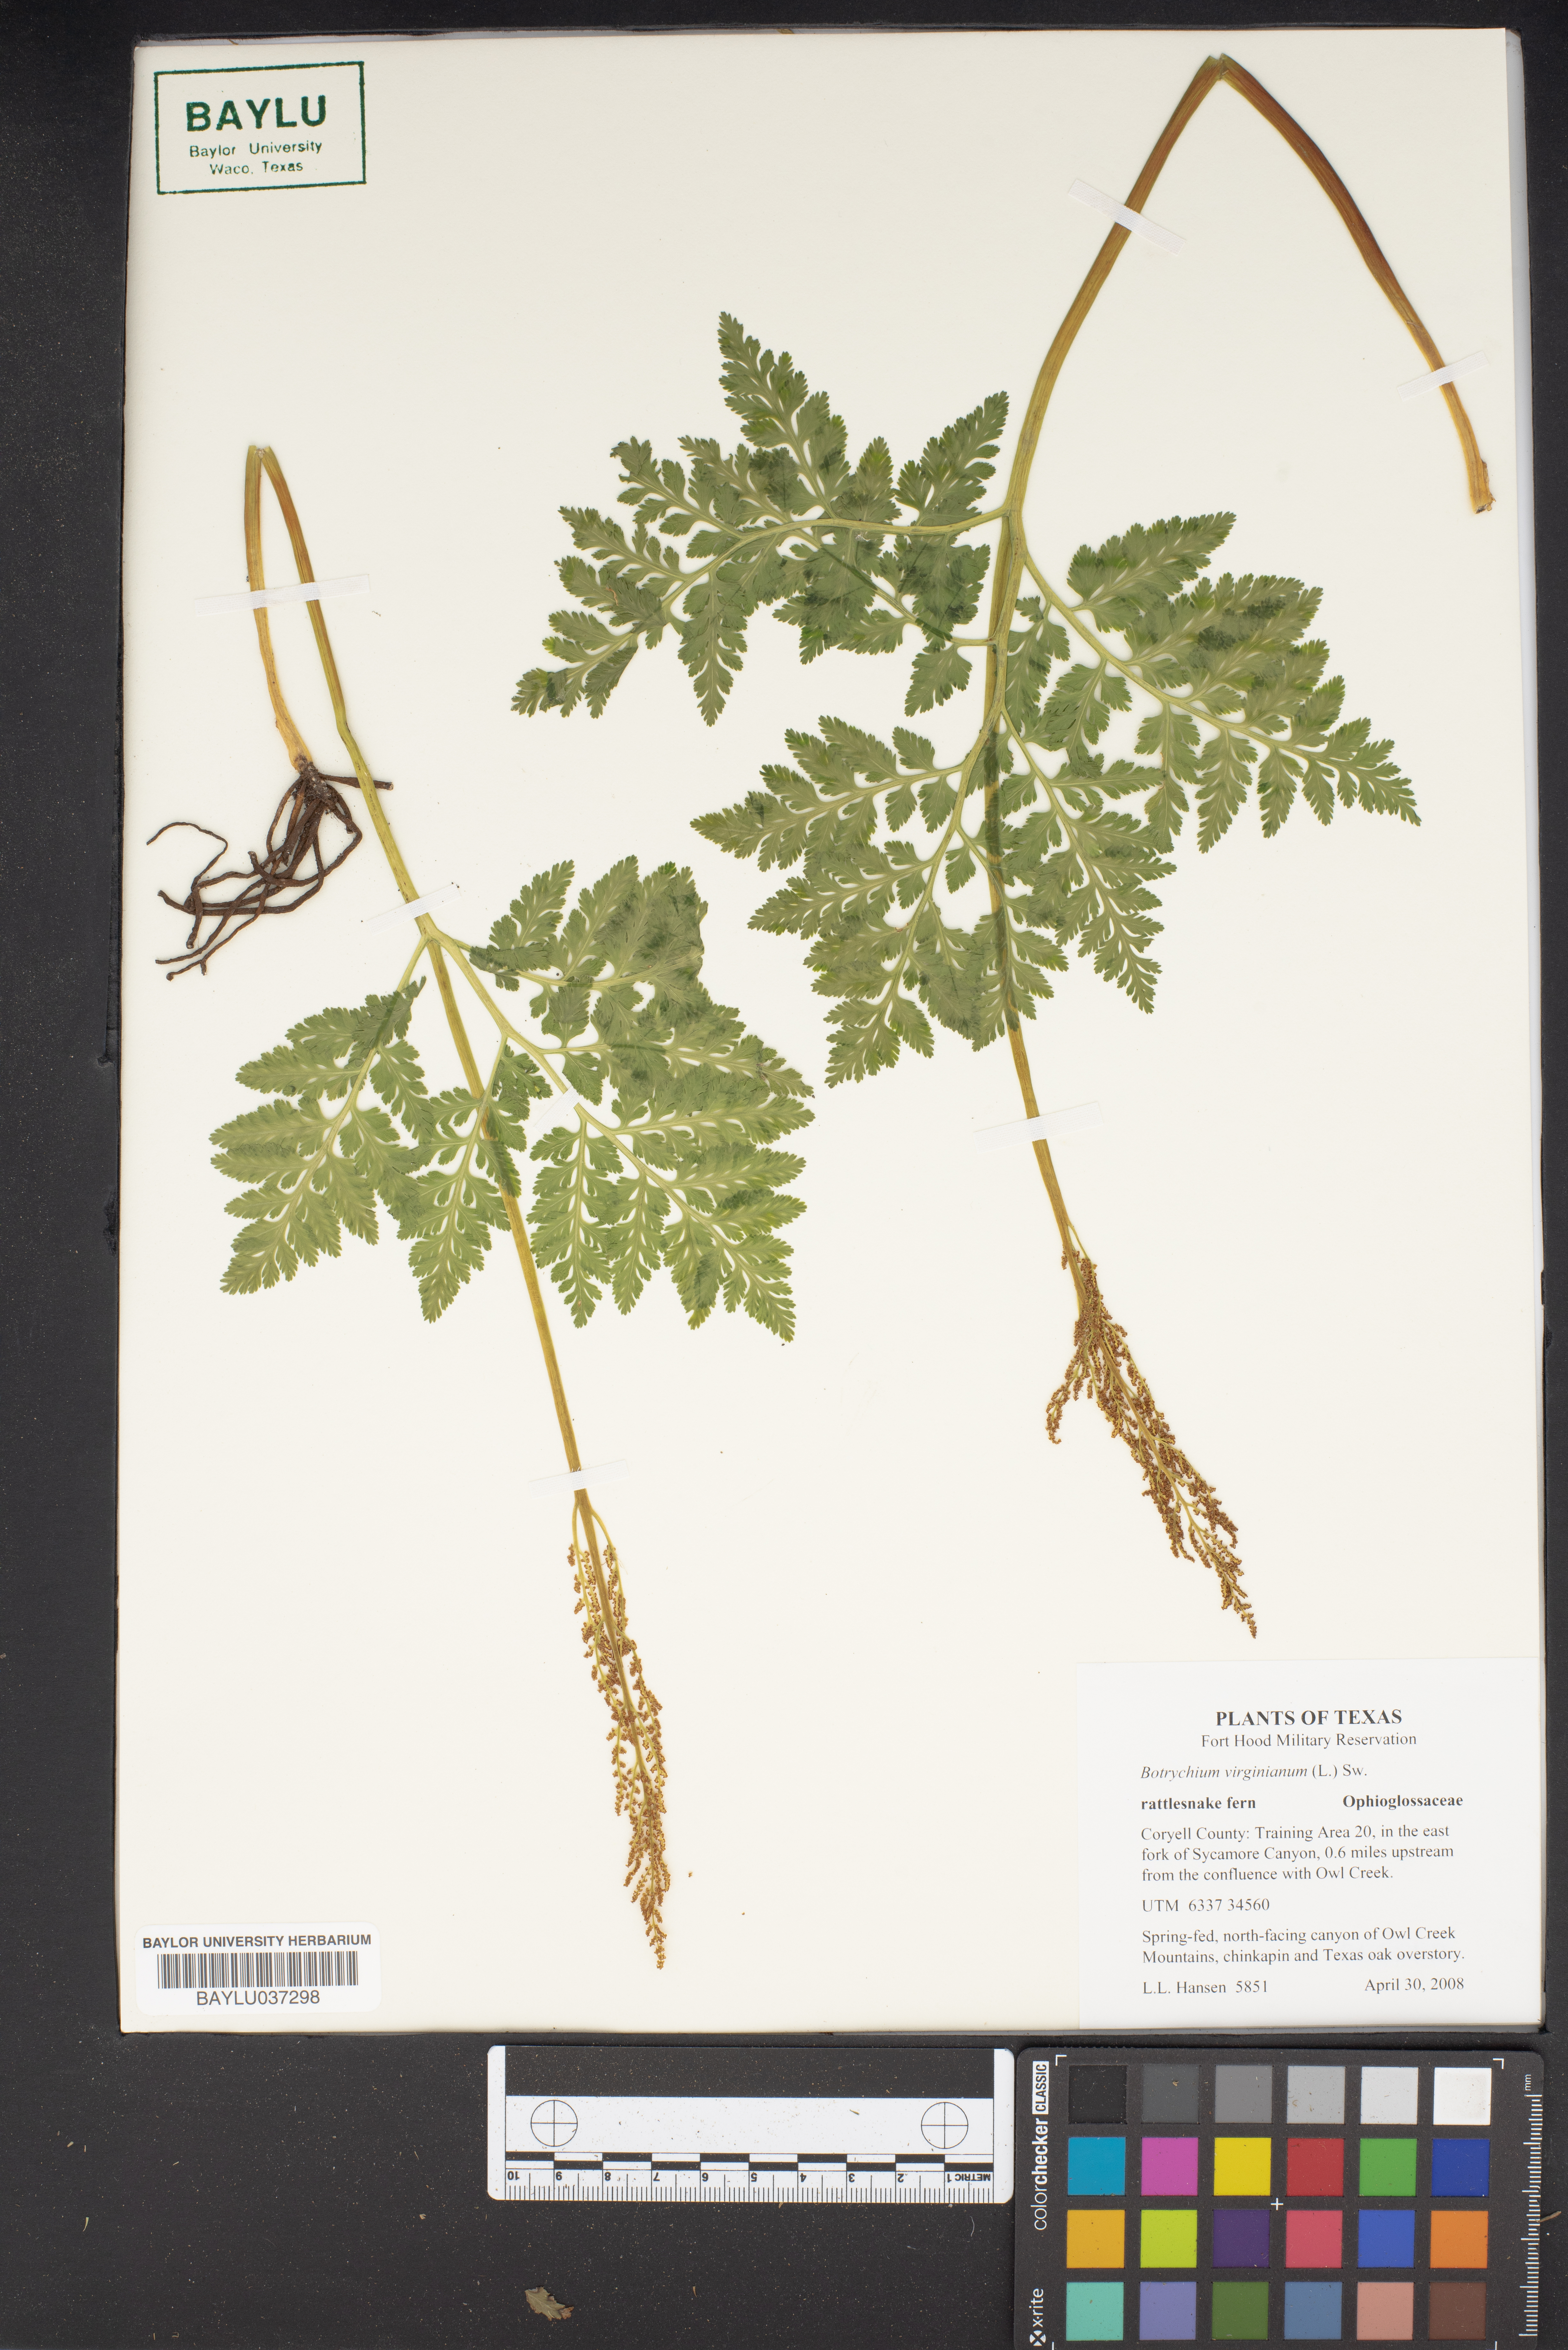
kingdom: Plantae
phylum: Tracheophyta
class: Polypodiopsida
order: Ophioglossales
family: Ophioglossaceae
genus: Botrypus
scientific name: Botrypus virginianus
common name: Common grapefern
